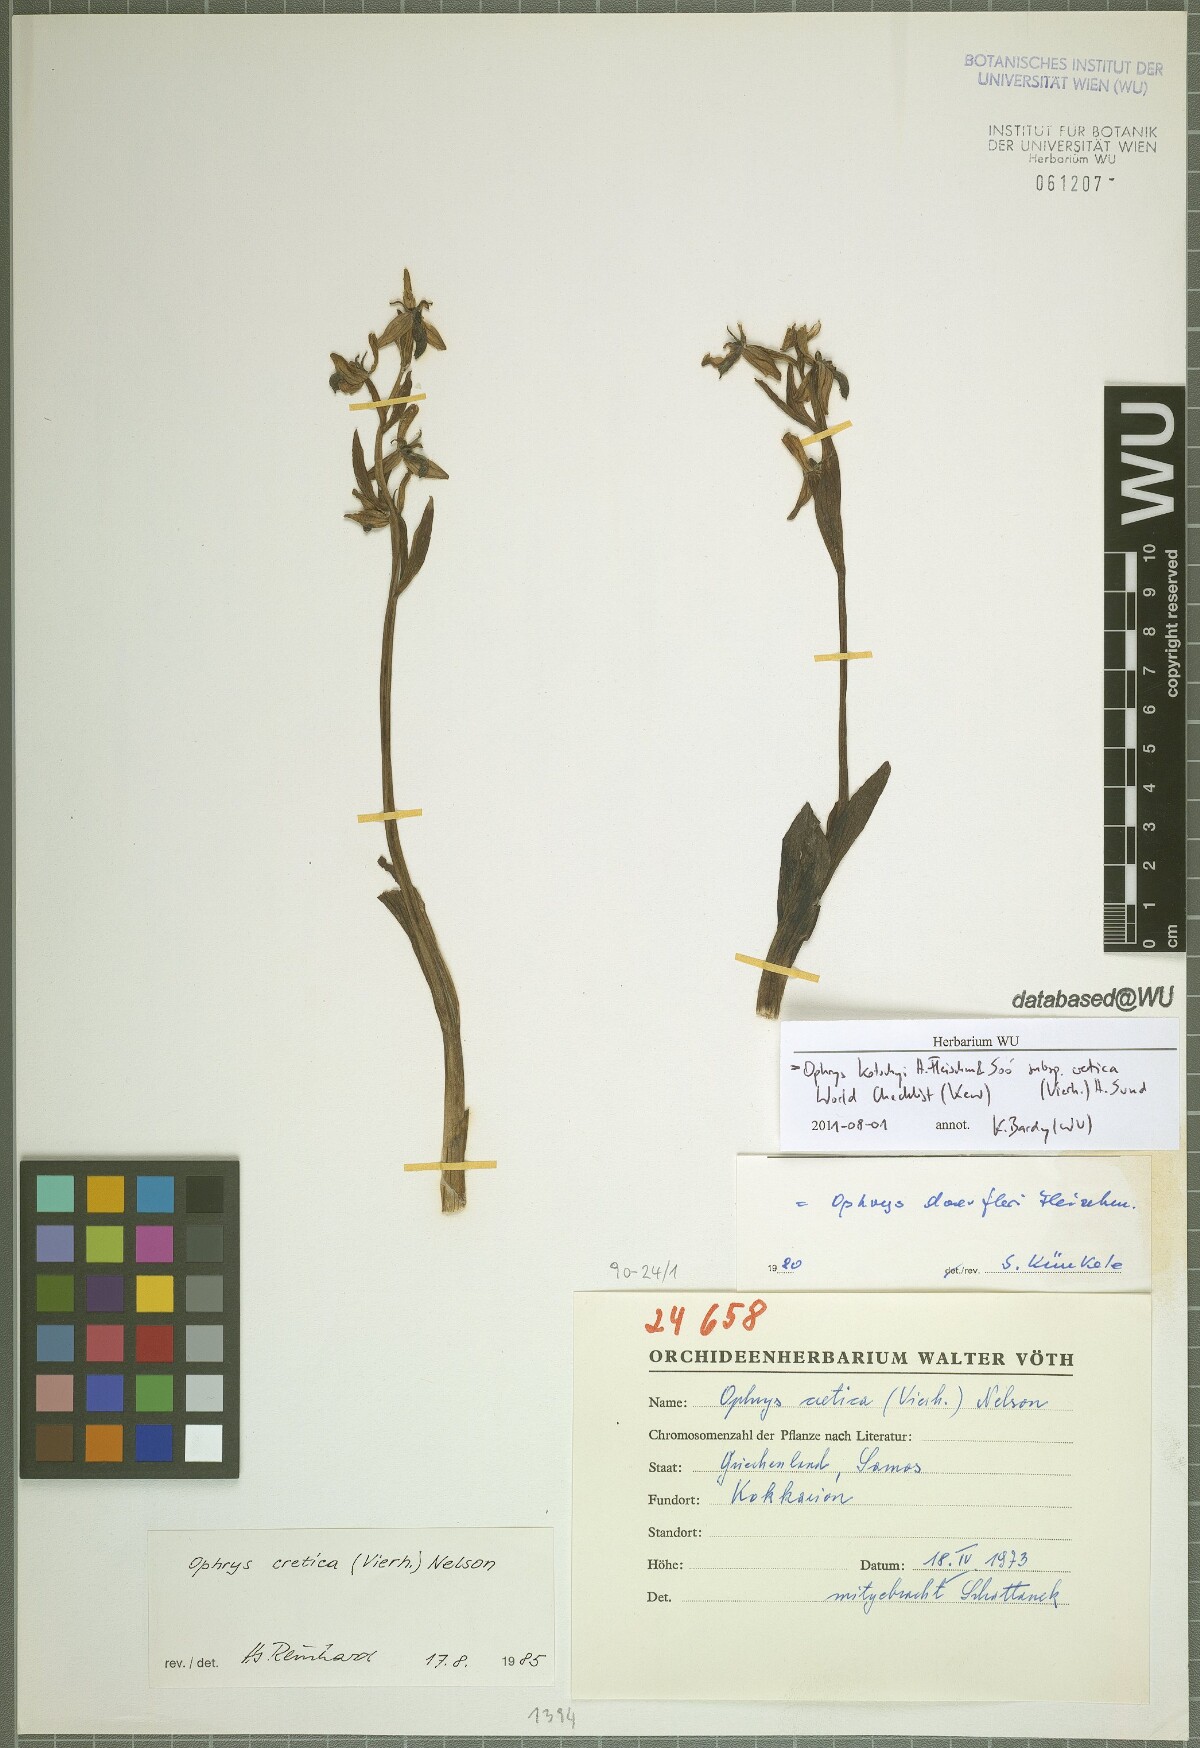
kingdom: Plantae
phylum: Tracheophyta
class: Liliopsida
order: Asparagales
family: Orchidaceae
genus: Ophrys
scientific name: Ophrys cretica
